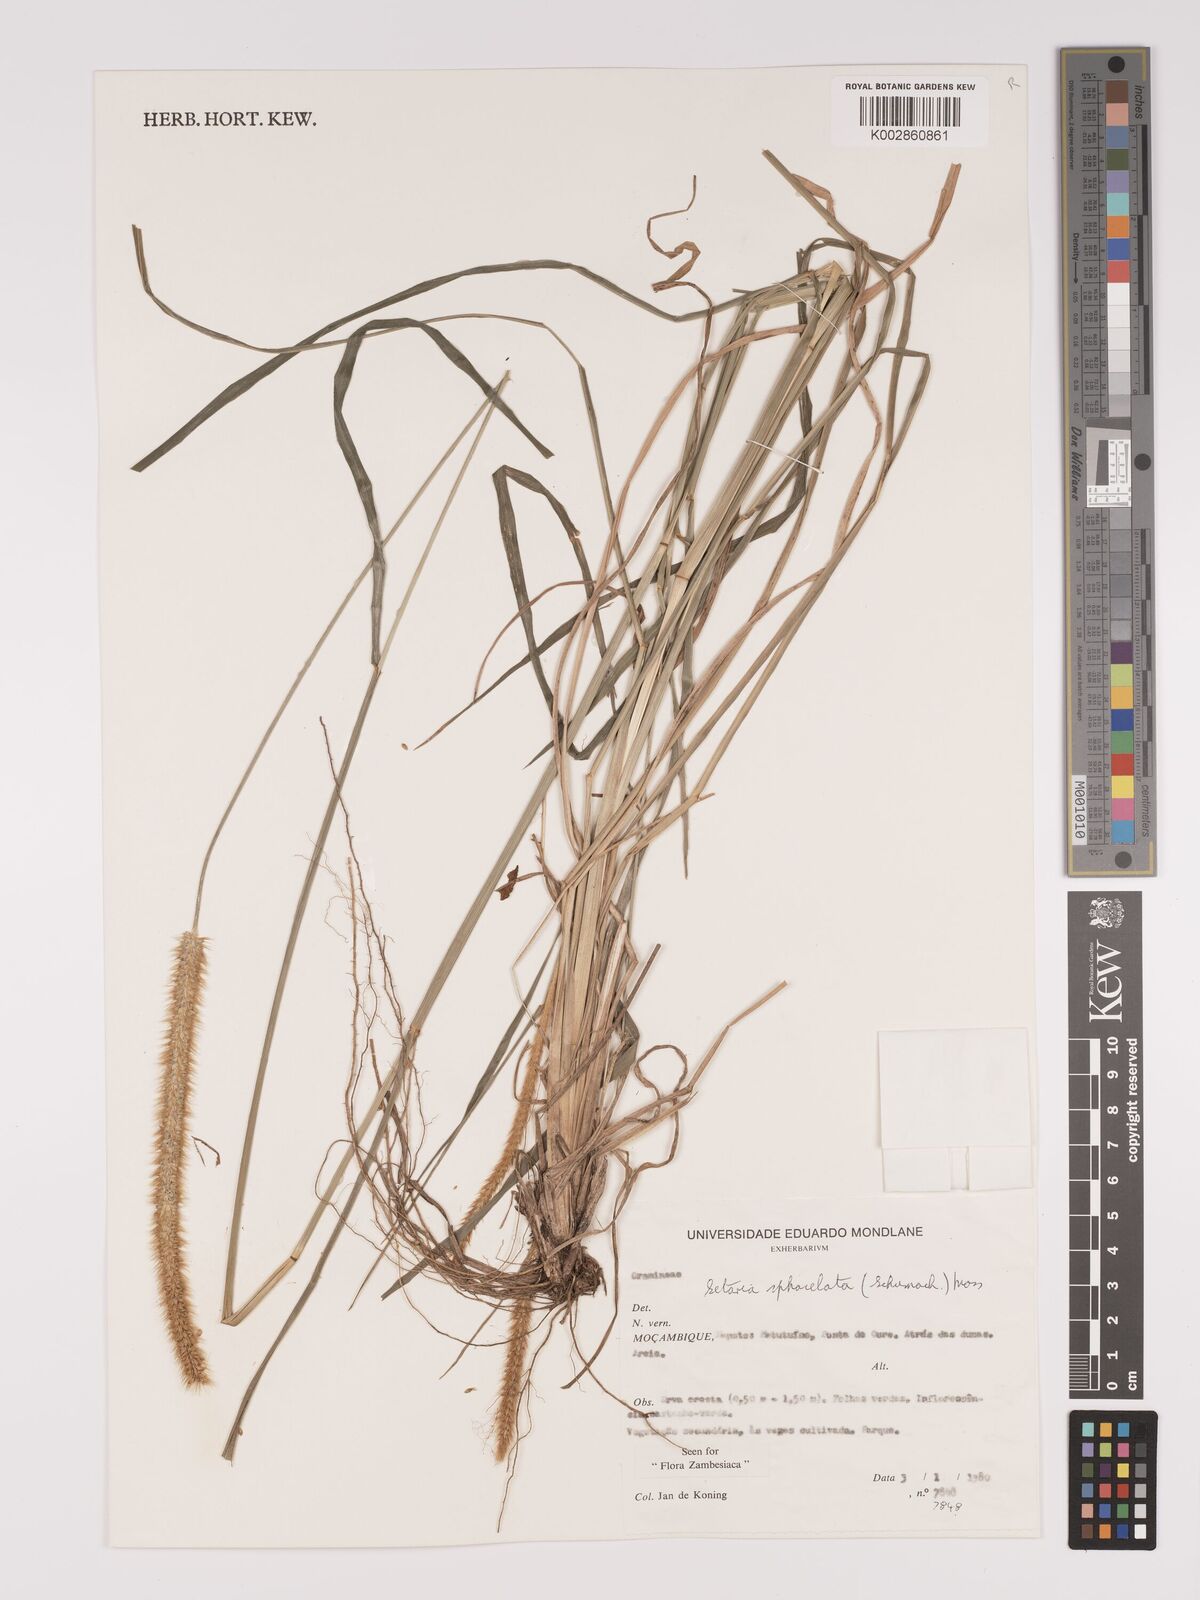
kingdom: Plantae
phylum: Tracheophyta
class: Liliopsida
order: Poales
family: Poaceae
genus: Setaria
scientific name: Setaria sphacelata
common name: African bristlegrass
